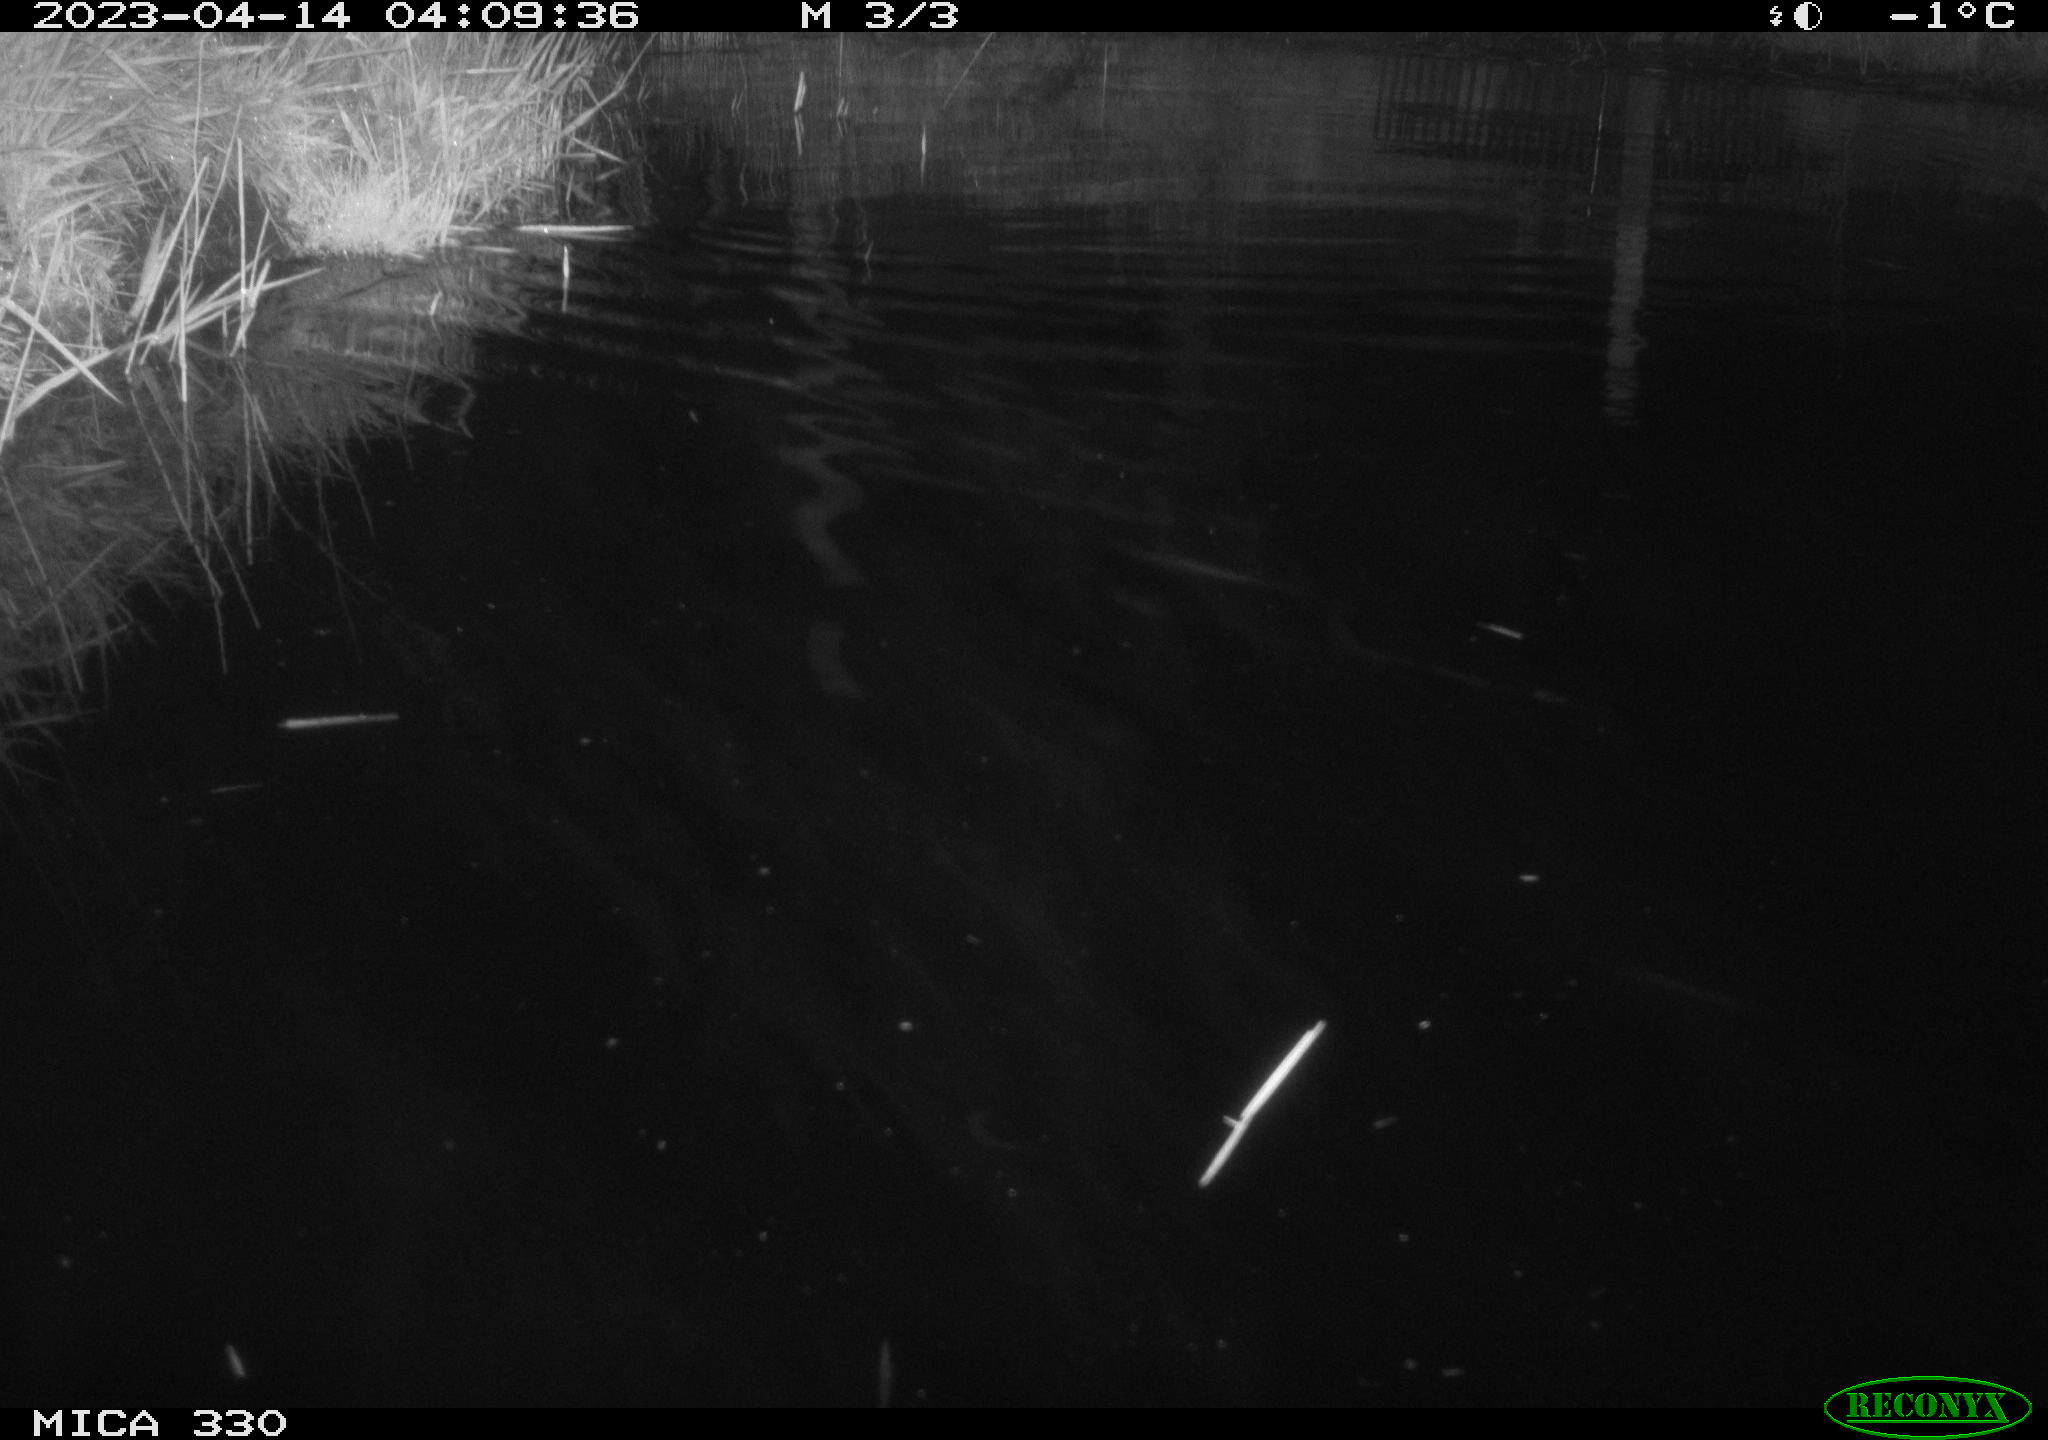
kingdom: Animalia
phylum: Chordata
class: Aves
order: Gruiformes
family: Rallidae
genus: Gallinula
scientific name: Gallinula chloropus
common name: Common moorhen
